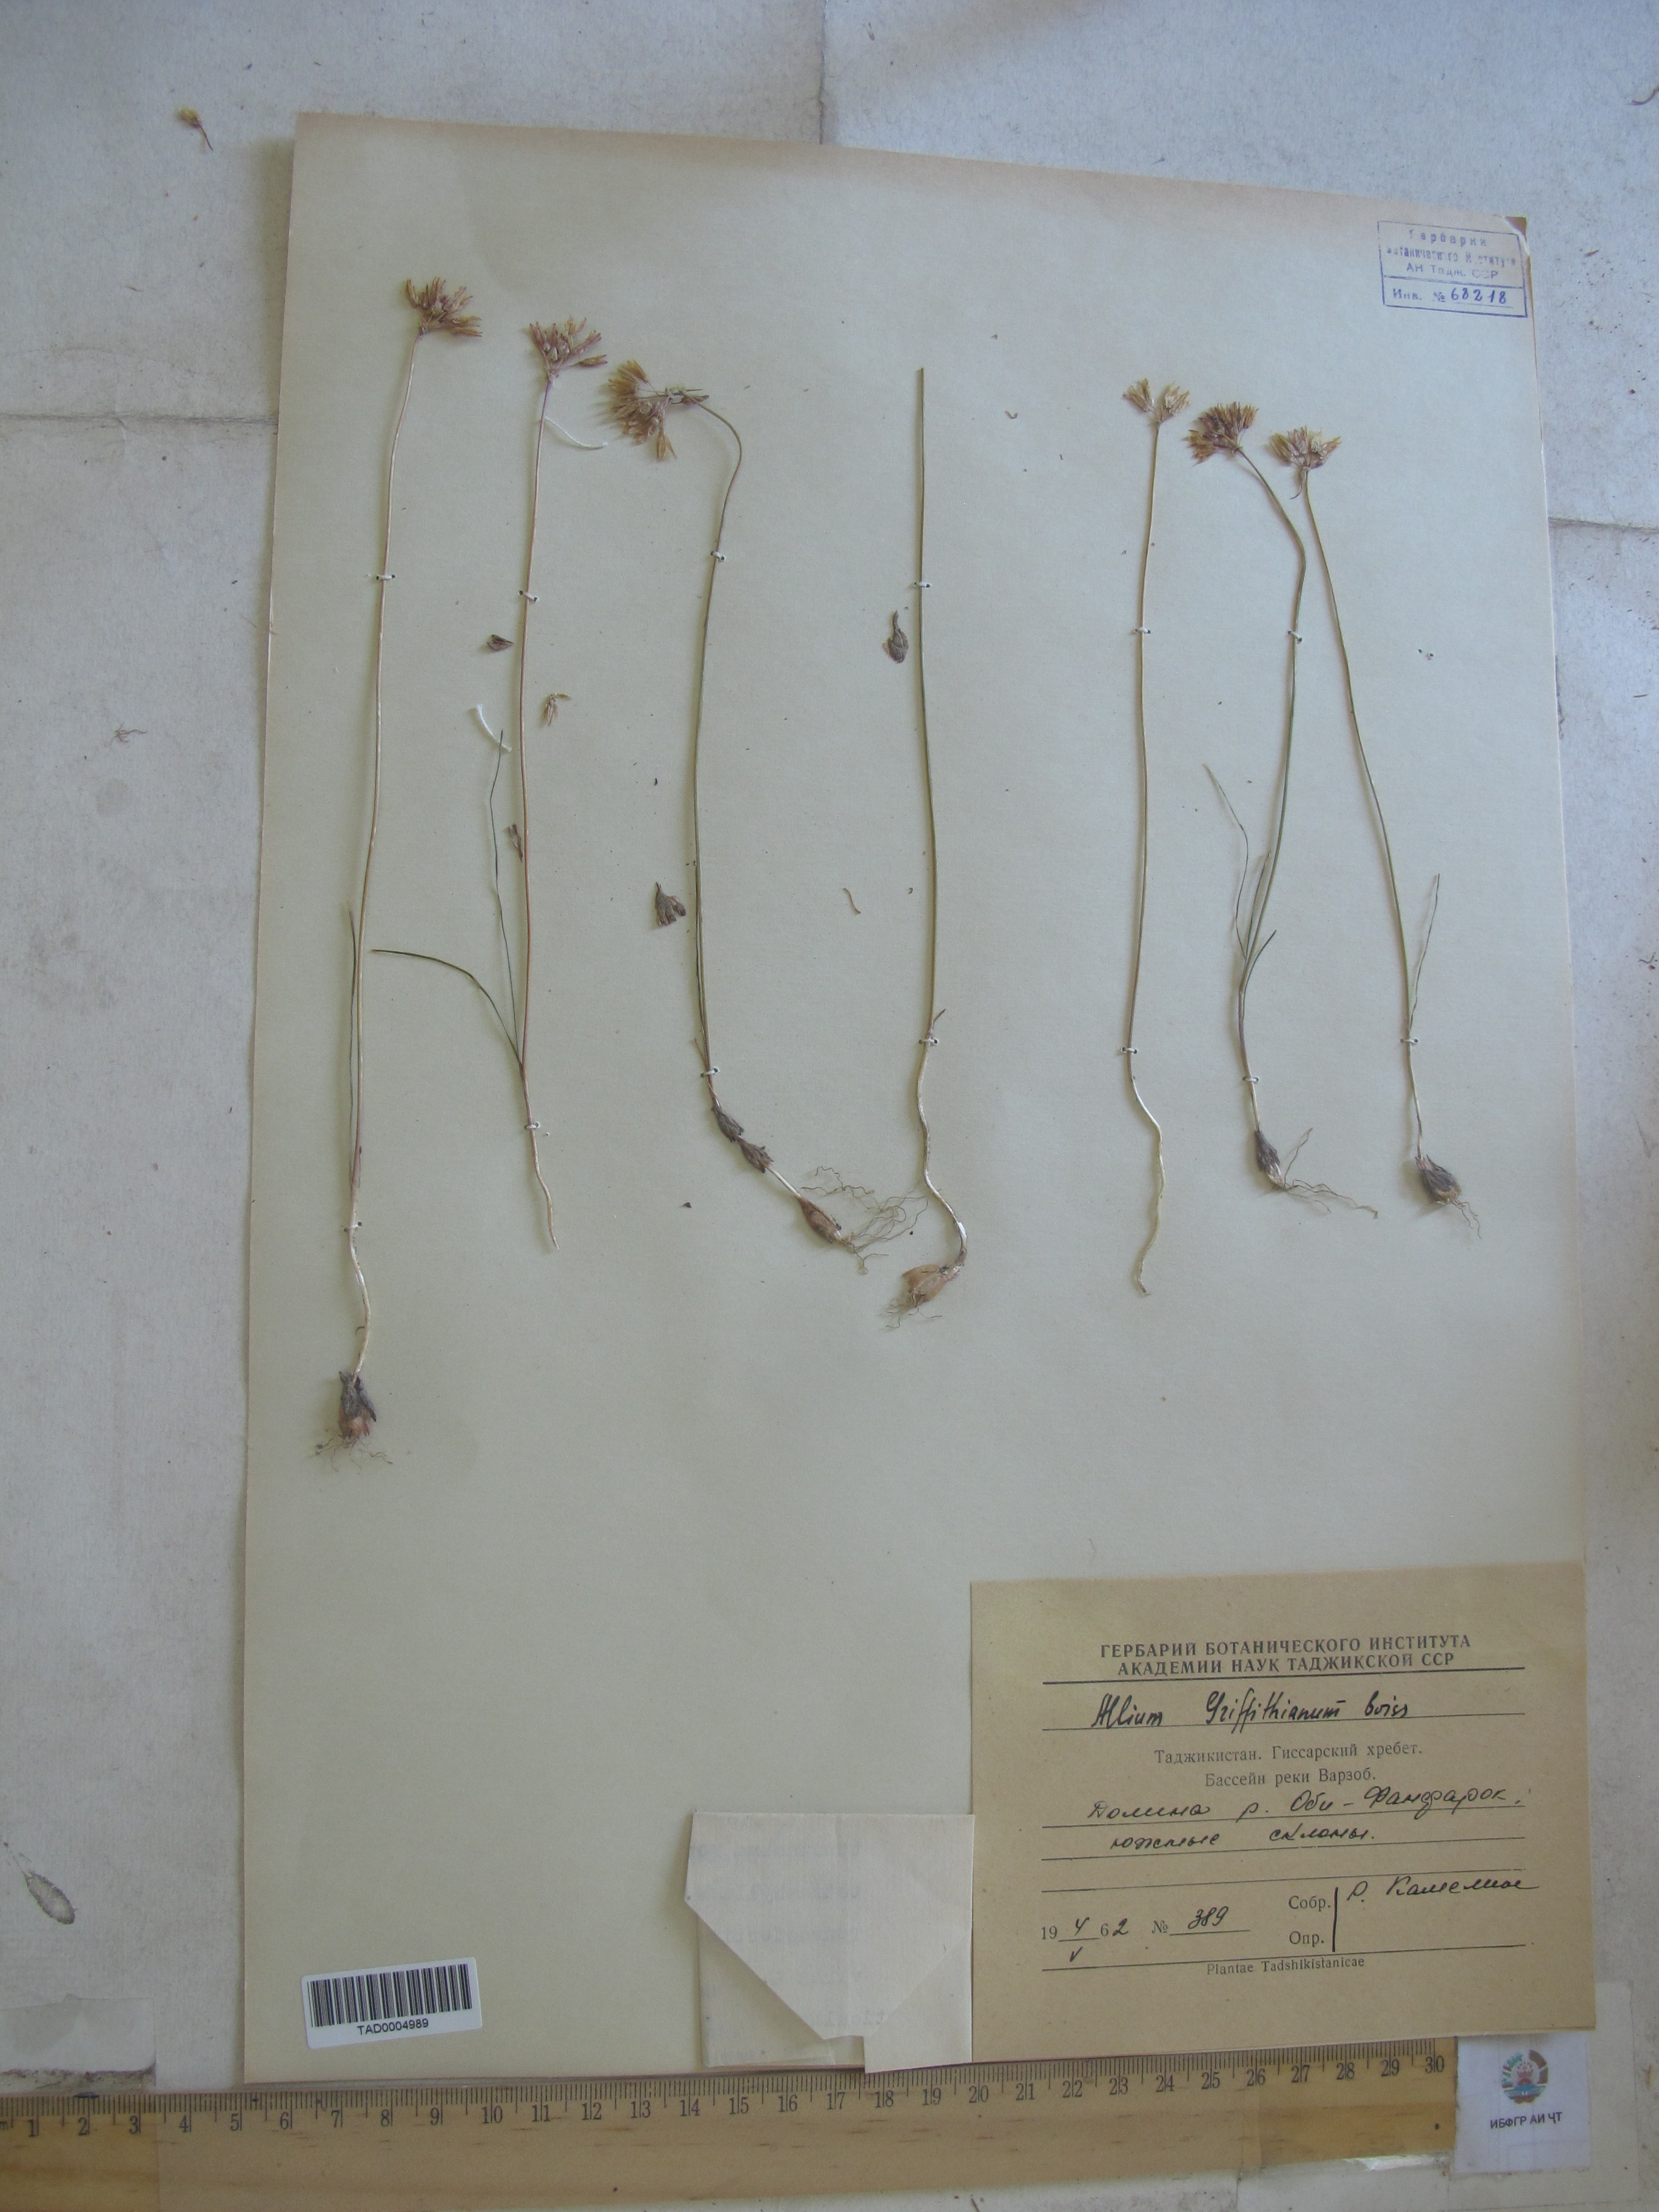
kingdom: Plantae
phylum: Tracheophyta
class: Liliopsida
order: Asparagales
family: Amaryllidaceae
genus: Allium
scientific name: Allium griffithianum
